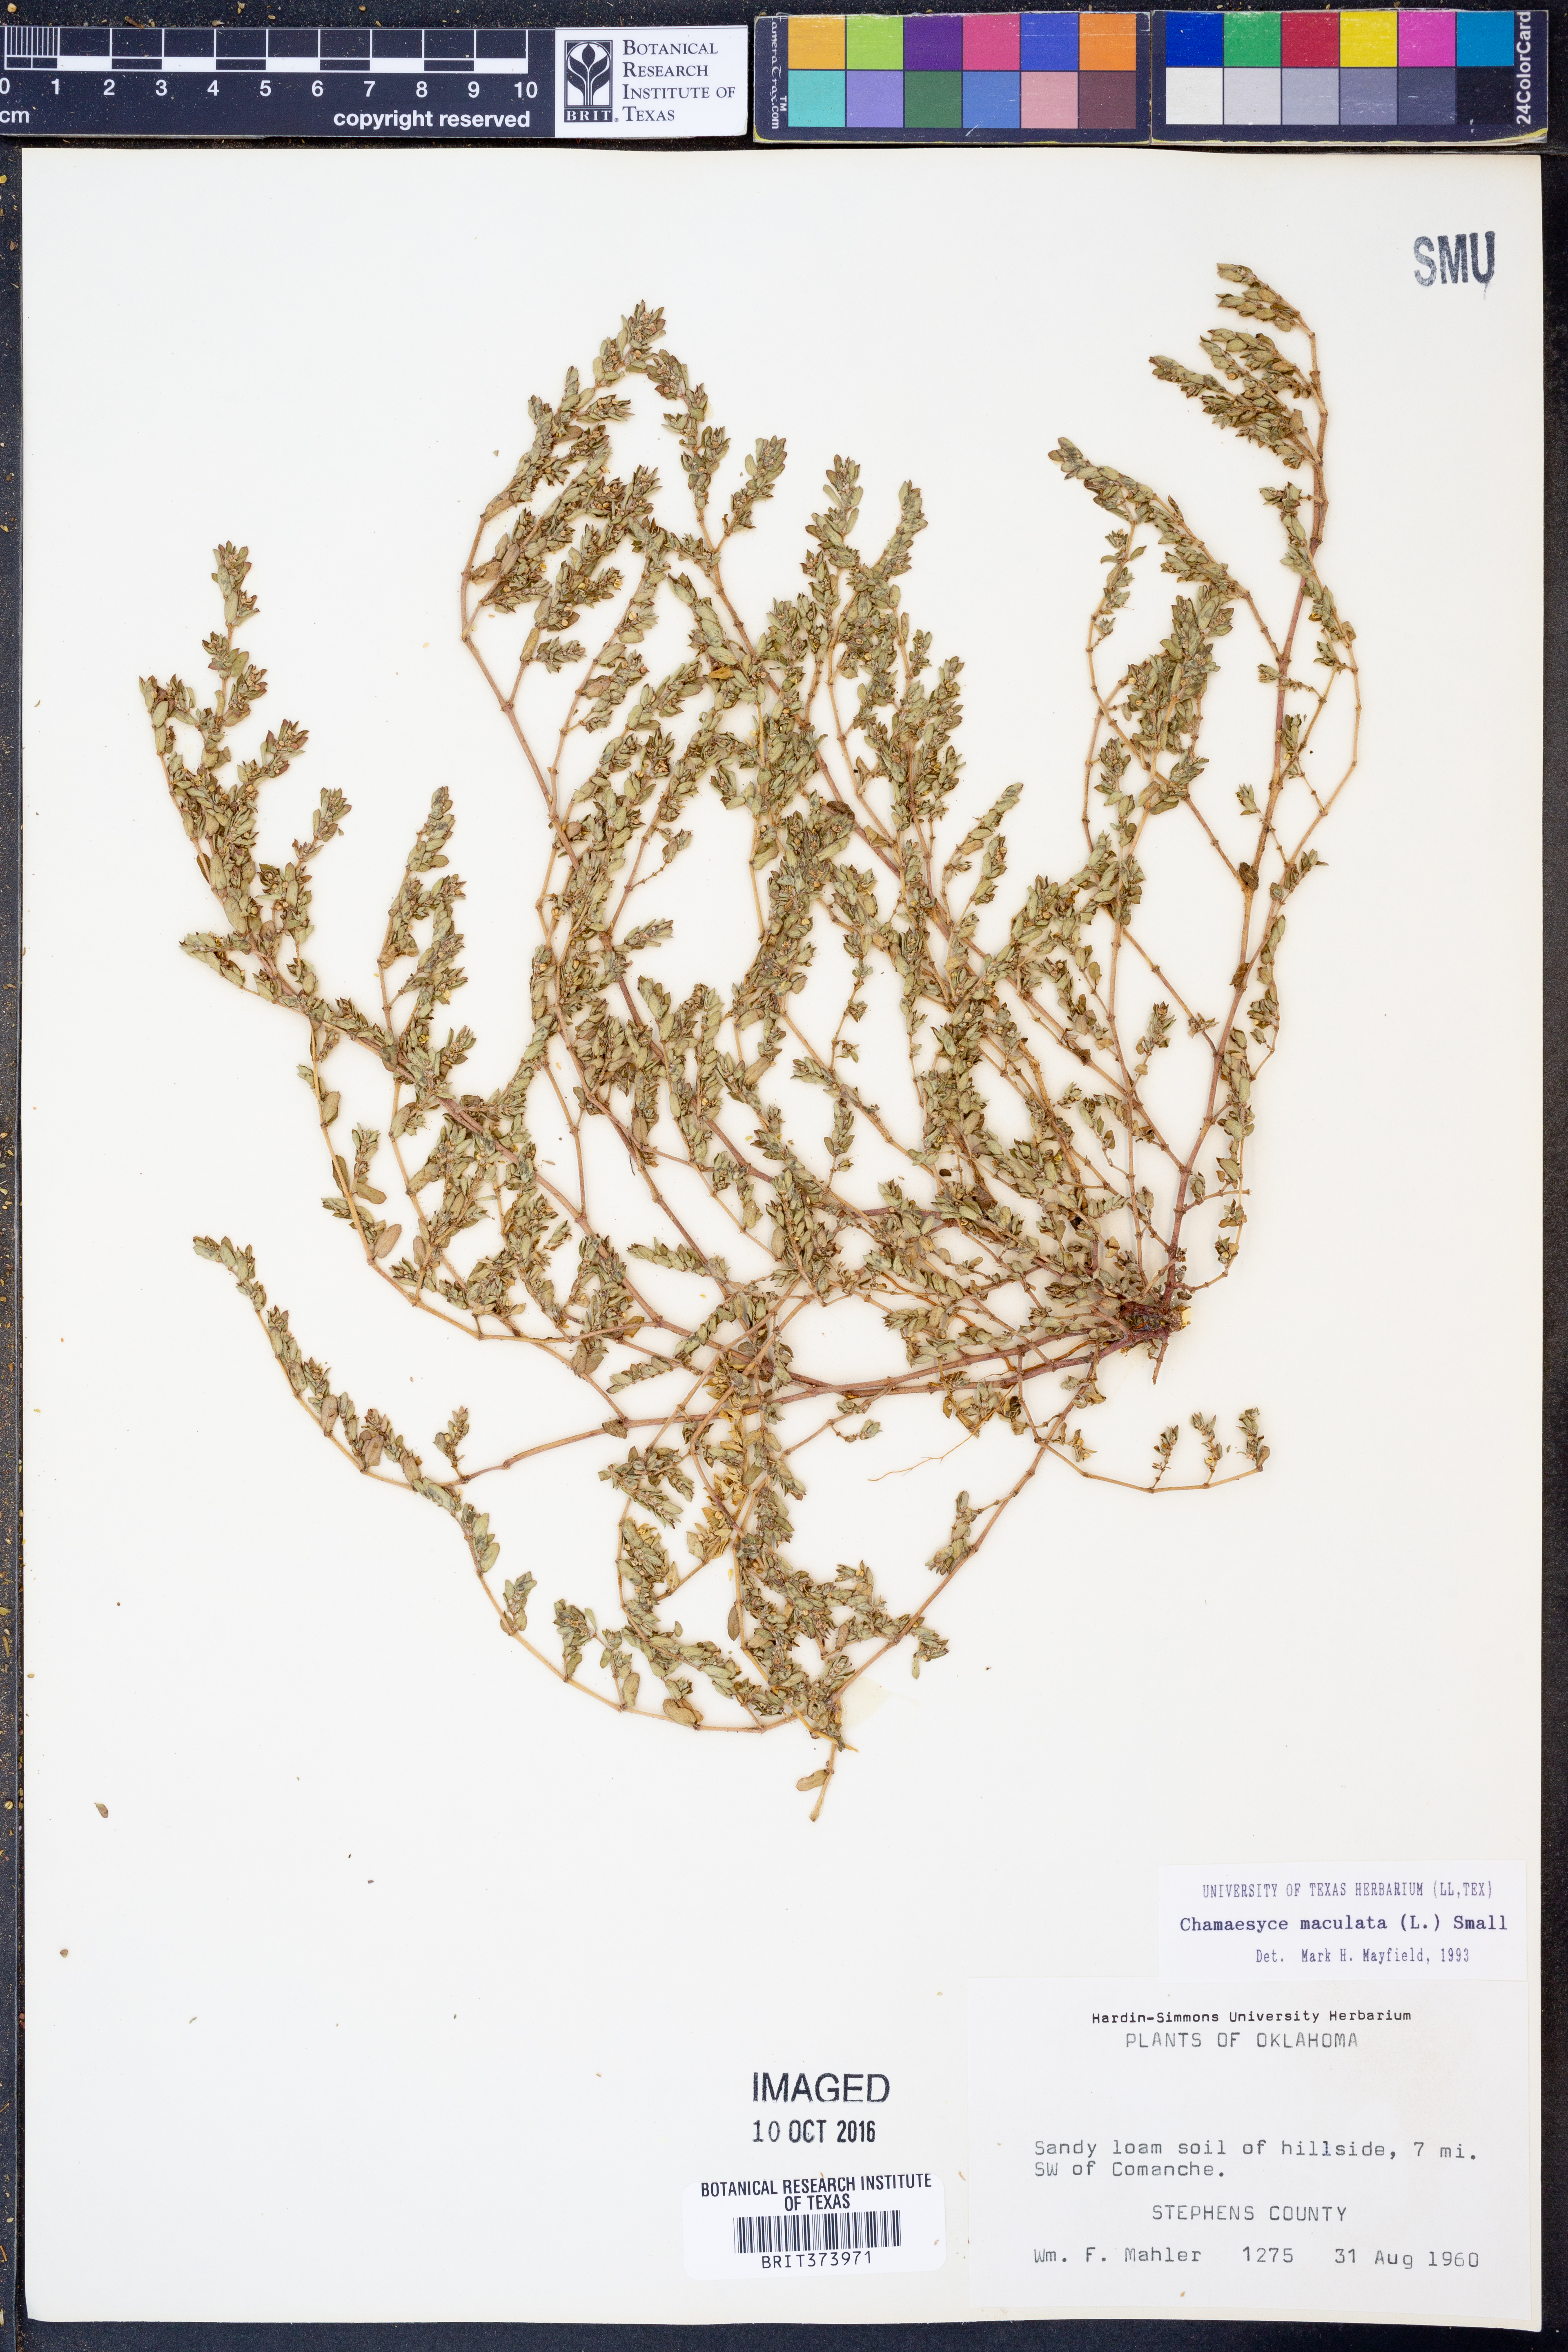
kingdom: Plantae
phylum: Tracheophyta
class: Magnoliopsida
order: Malpighiales
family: Euphorbiaceae
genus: Euphorbia
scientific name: Euphorbia maculata
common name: Spotted spurge
